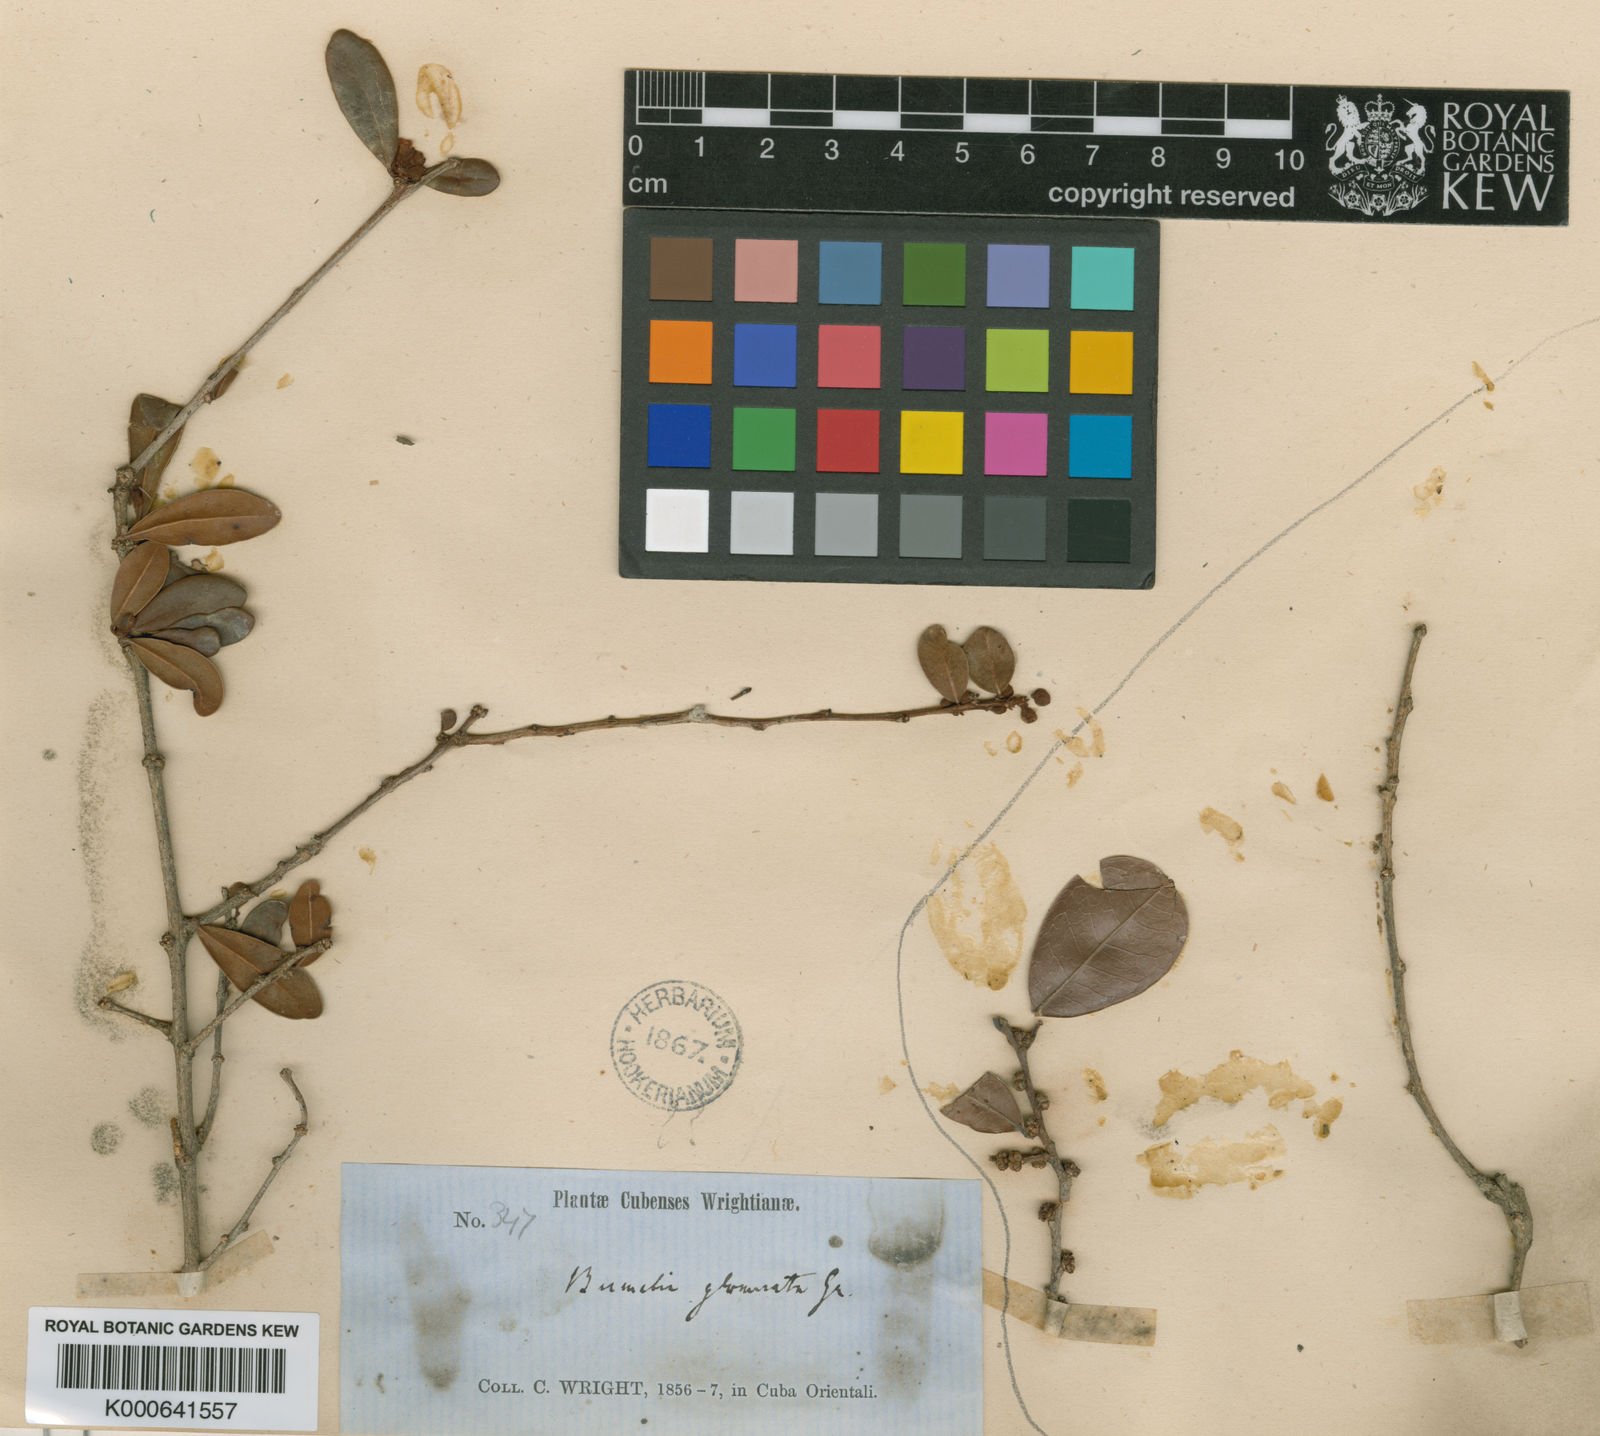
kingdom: Plantae
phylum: Tracheophyta
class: Magnoliopsida
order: Ericales
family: Sapotaceae
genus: Sideroxylon
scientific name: Sideroxylon horridum
